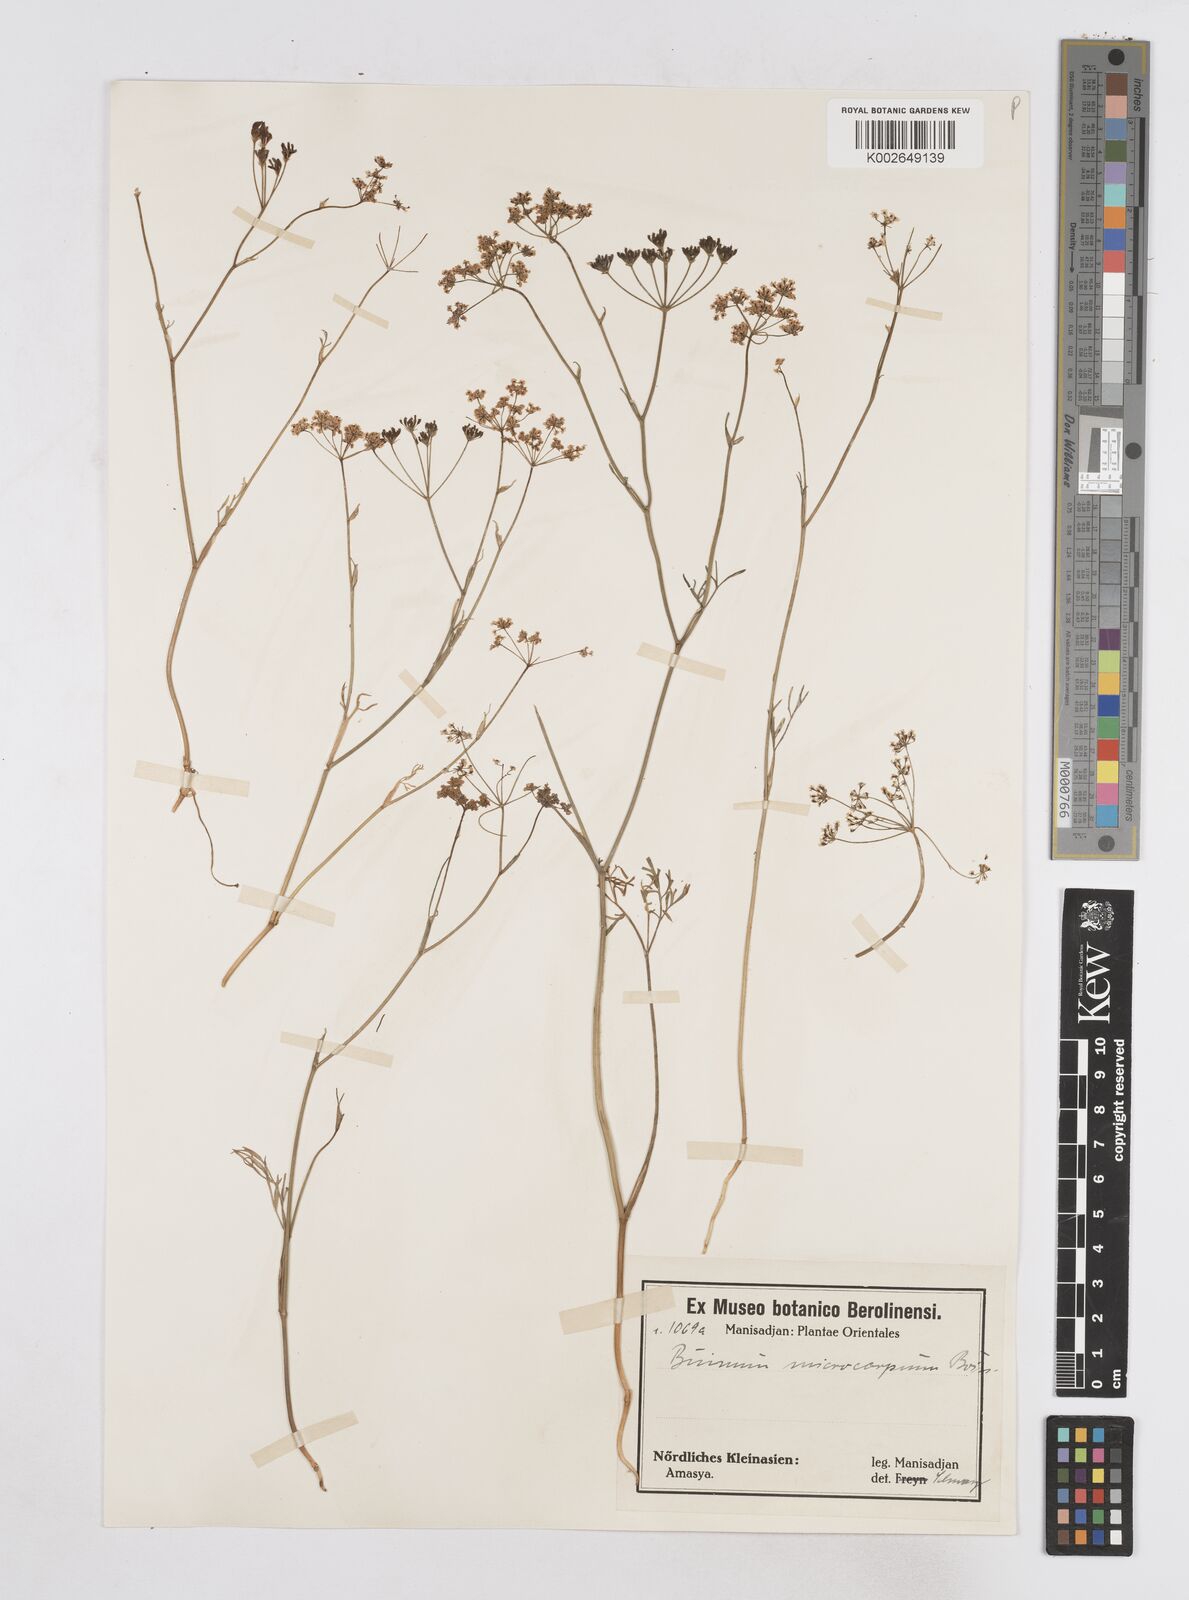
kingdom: Plantae
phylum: Tracheophyta
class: Magnoliopsida
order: Apiales
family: Apiaceae
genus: Bunium
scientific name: Bunium microcarpum
